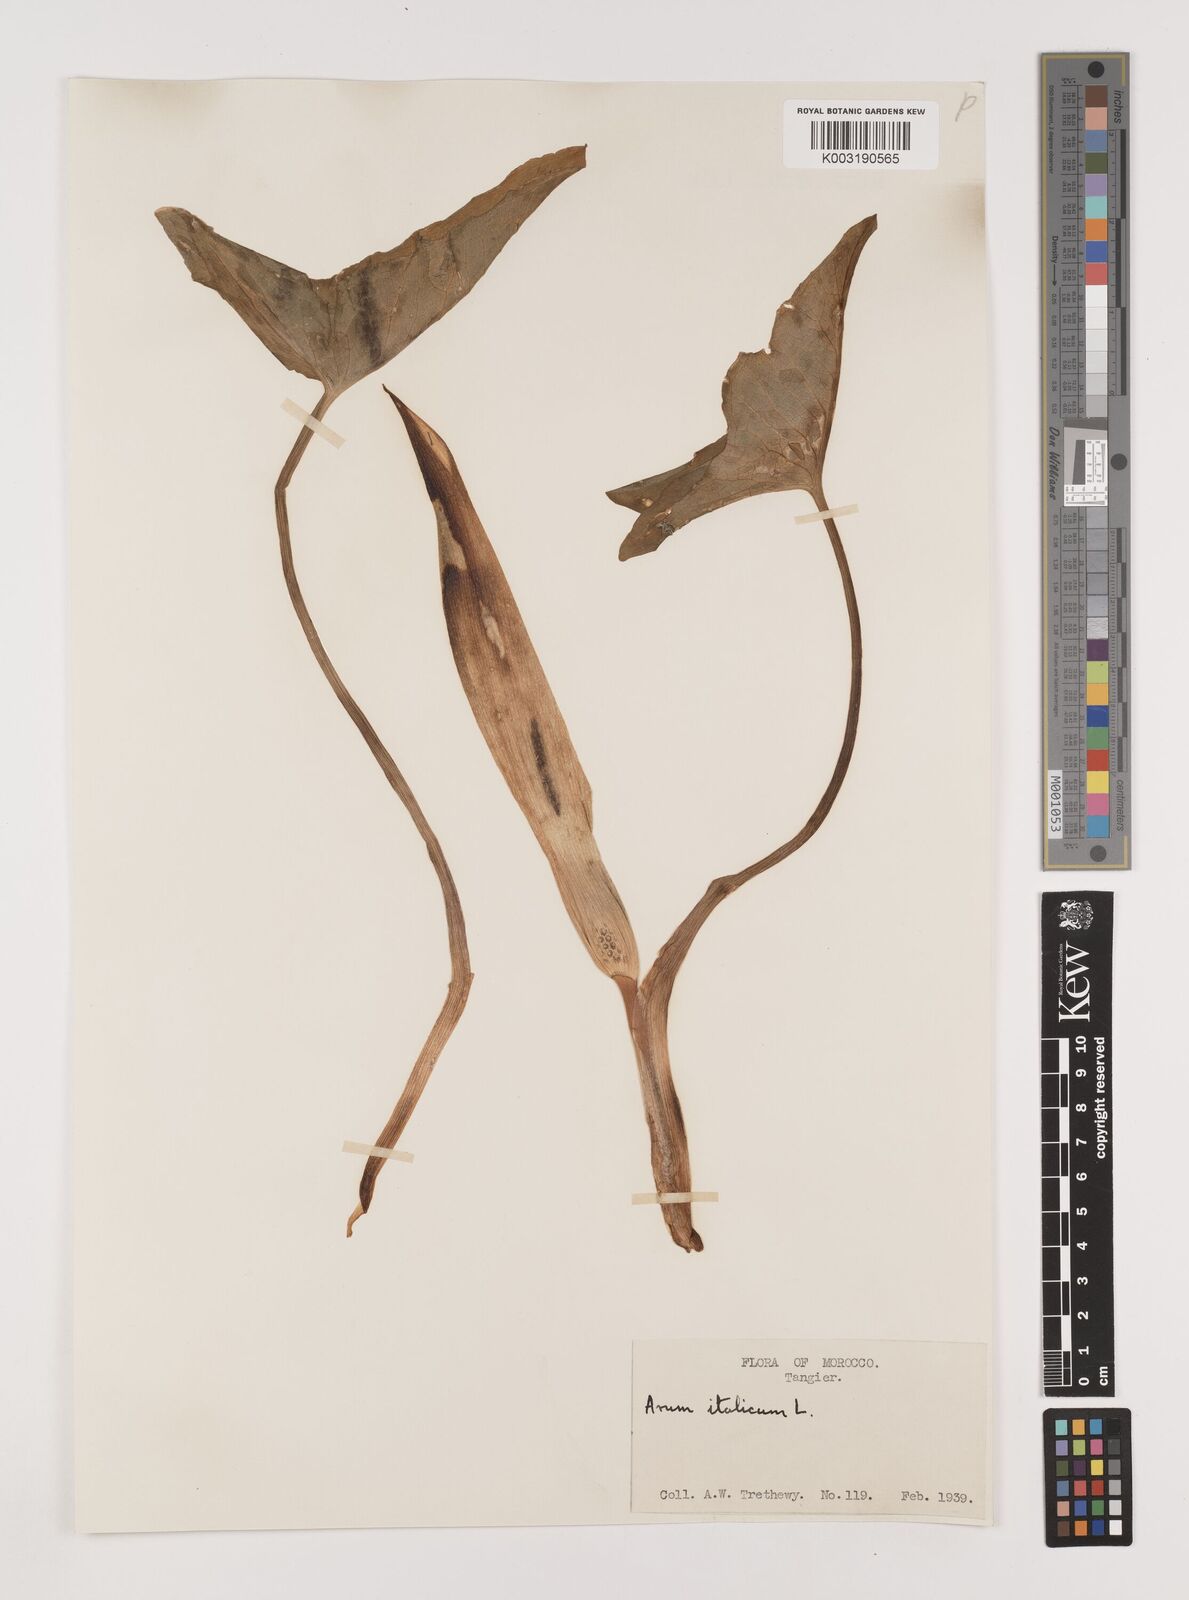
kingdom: Plantae
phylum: Tracheophyta
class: Liliopsida
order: Alismatales
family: Araceae
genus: Arum
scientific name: Arum italicum
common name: Italian lords-and-ladies
